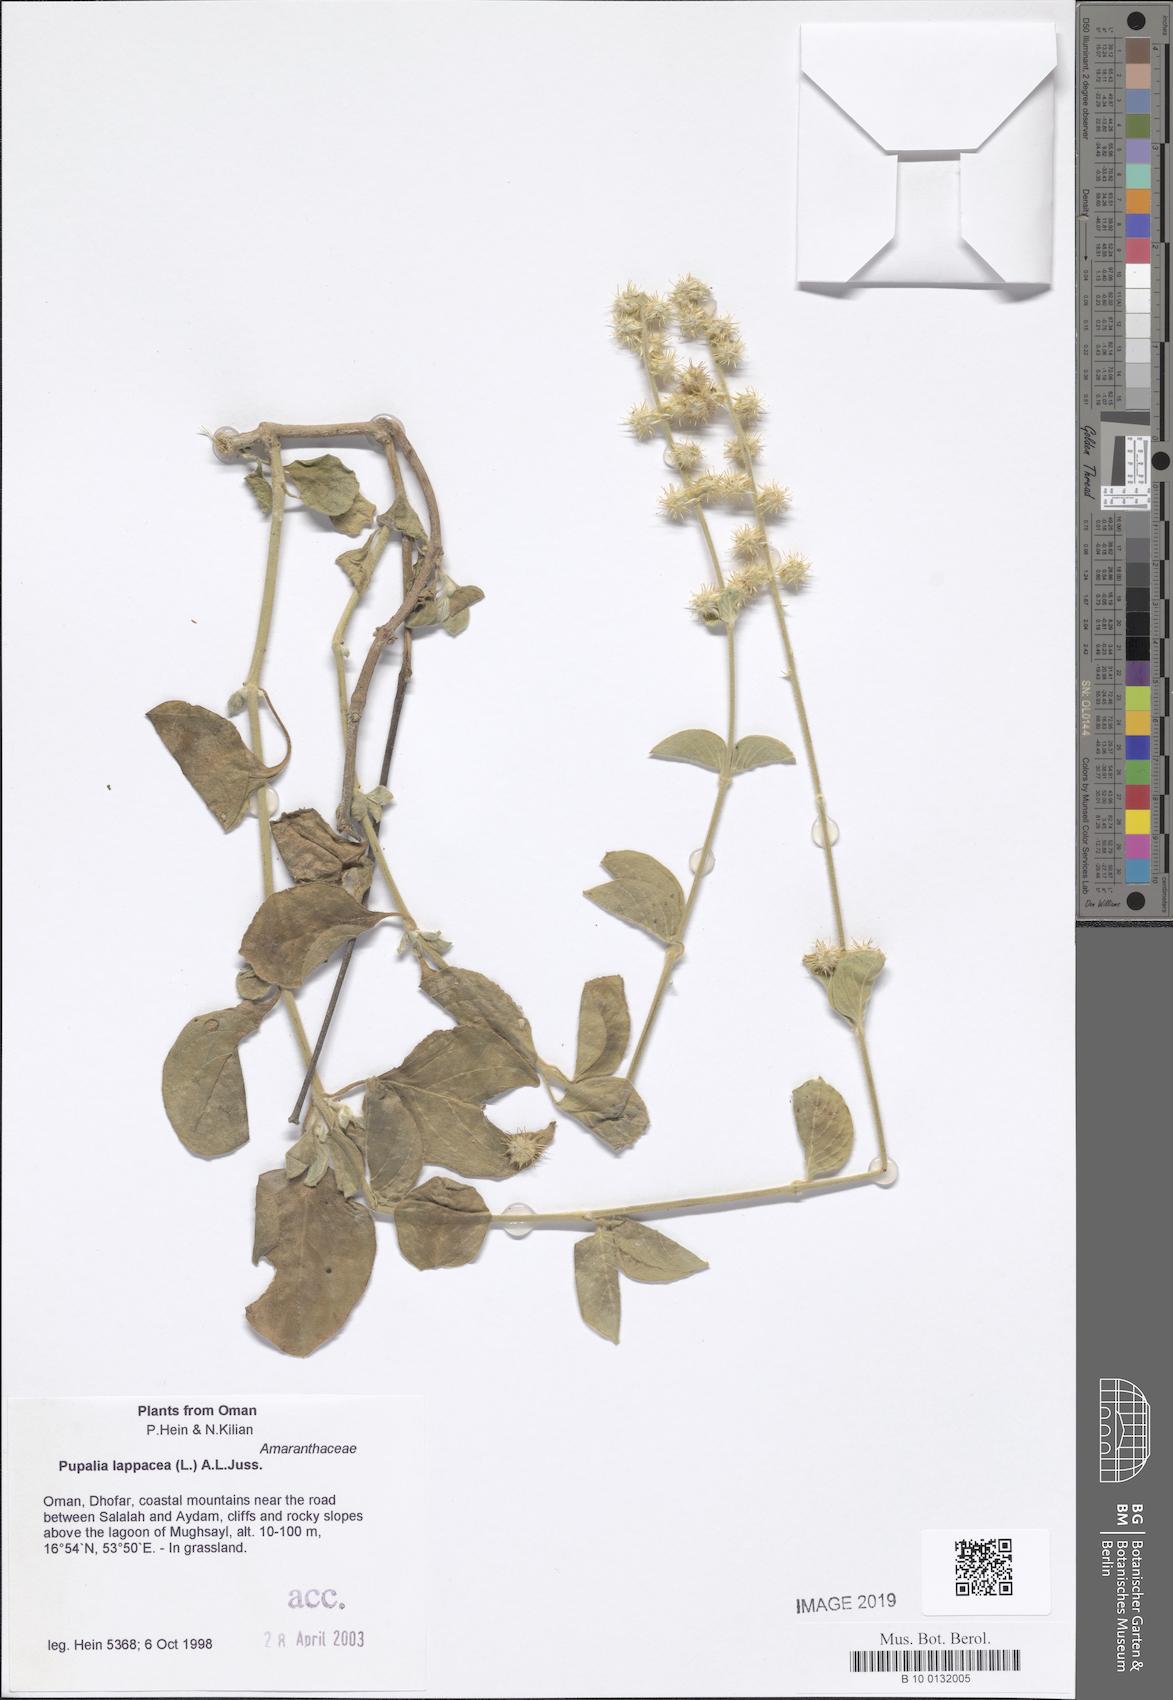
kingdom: Plantae
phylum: Tracheophyta
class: Magnoliopsida
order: Caryophyllales
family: Amaranthaceae
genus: Pupalia
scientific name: Pupalia lappacea
